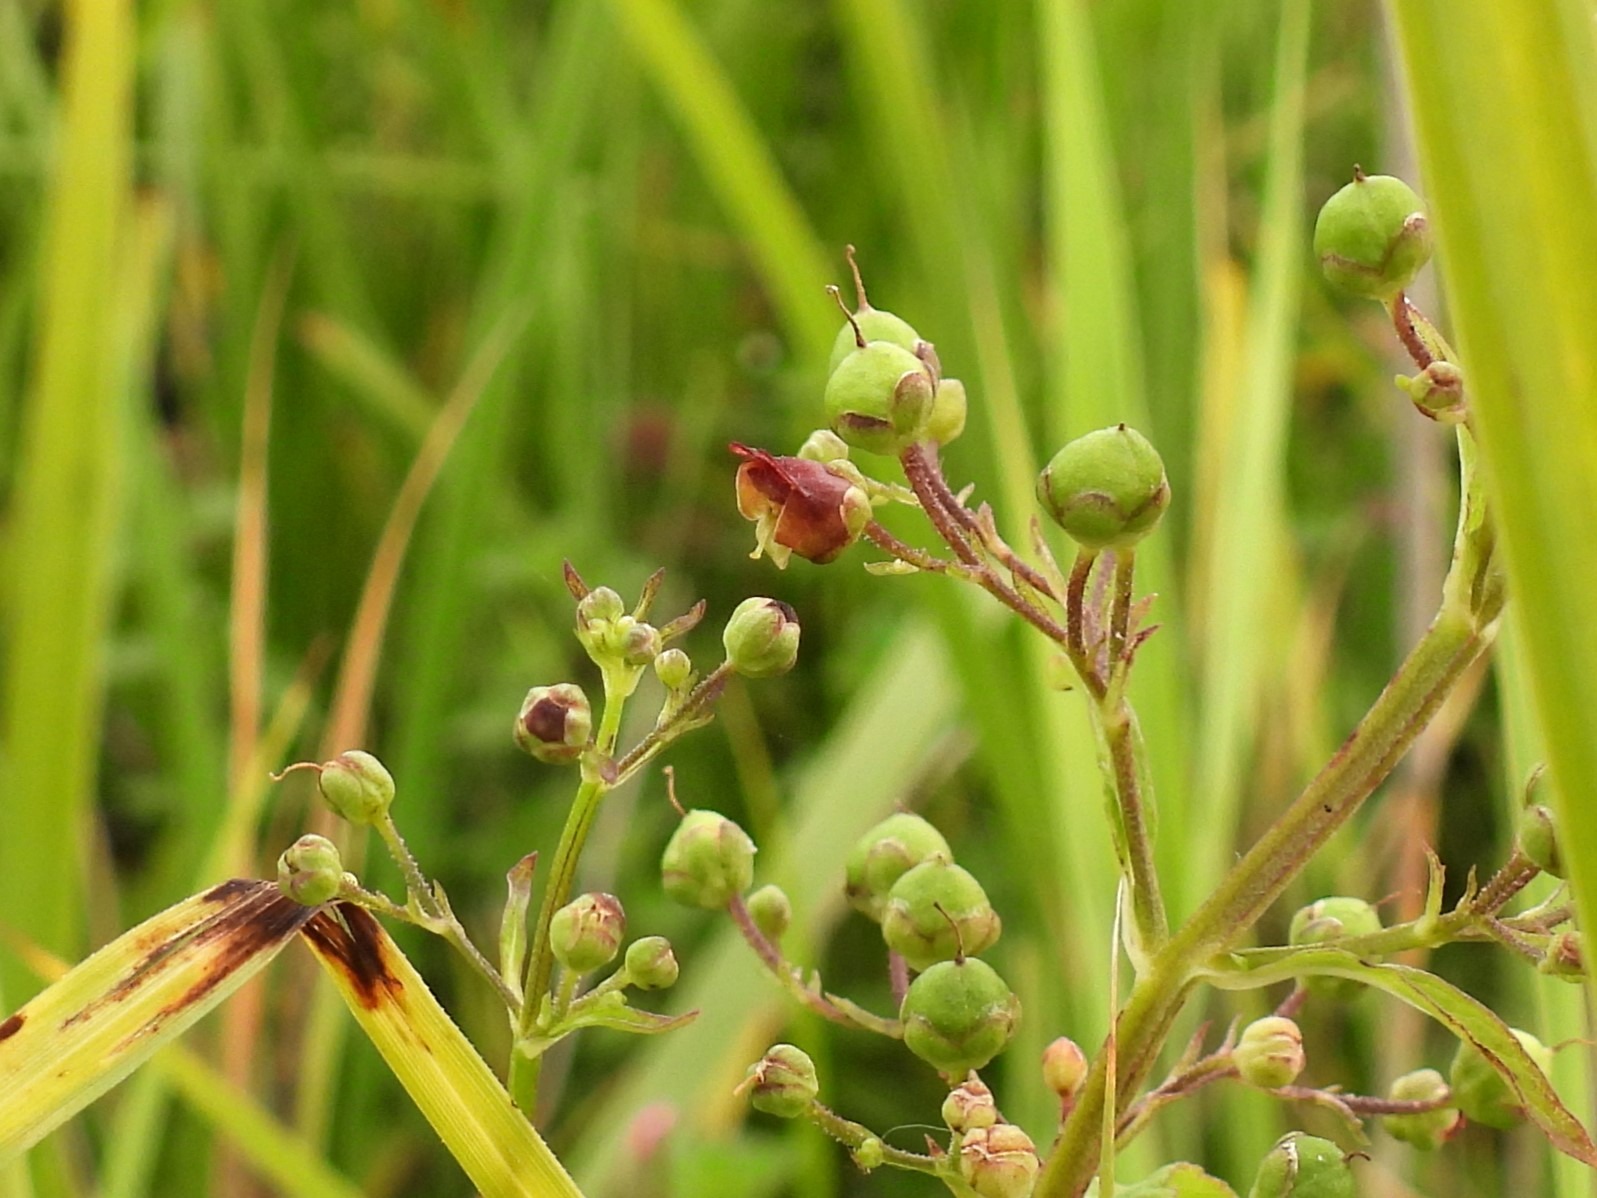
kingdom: Plantae
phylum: Tracheophyta
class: Magnoliopsida
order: Lamiales
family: Scrophulariaceae
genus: Scrophularia
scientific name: Scrophularia umbrosa
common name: Vand-brunrod
